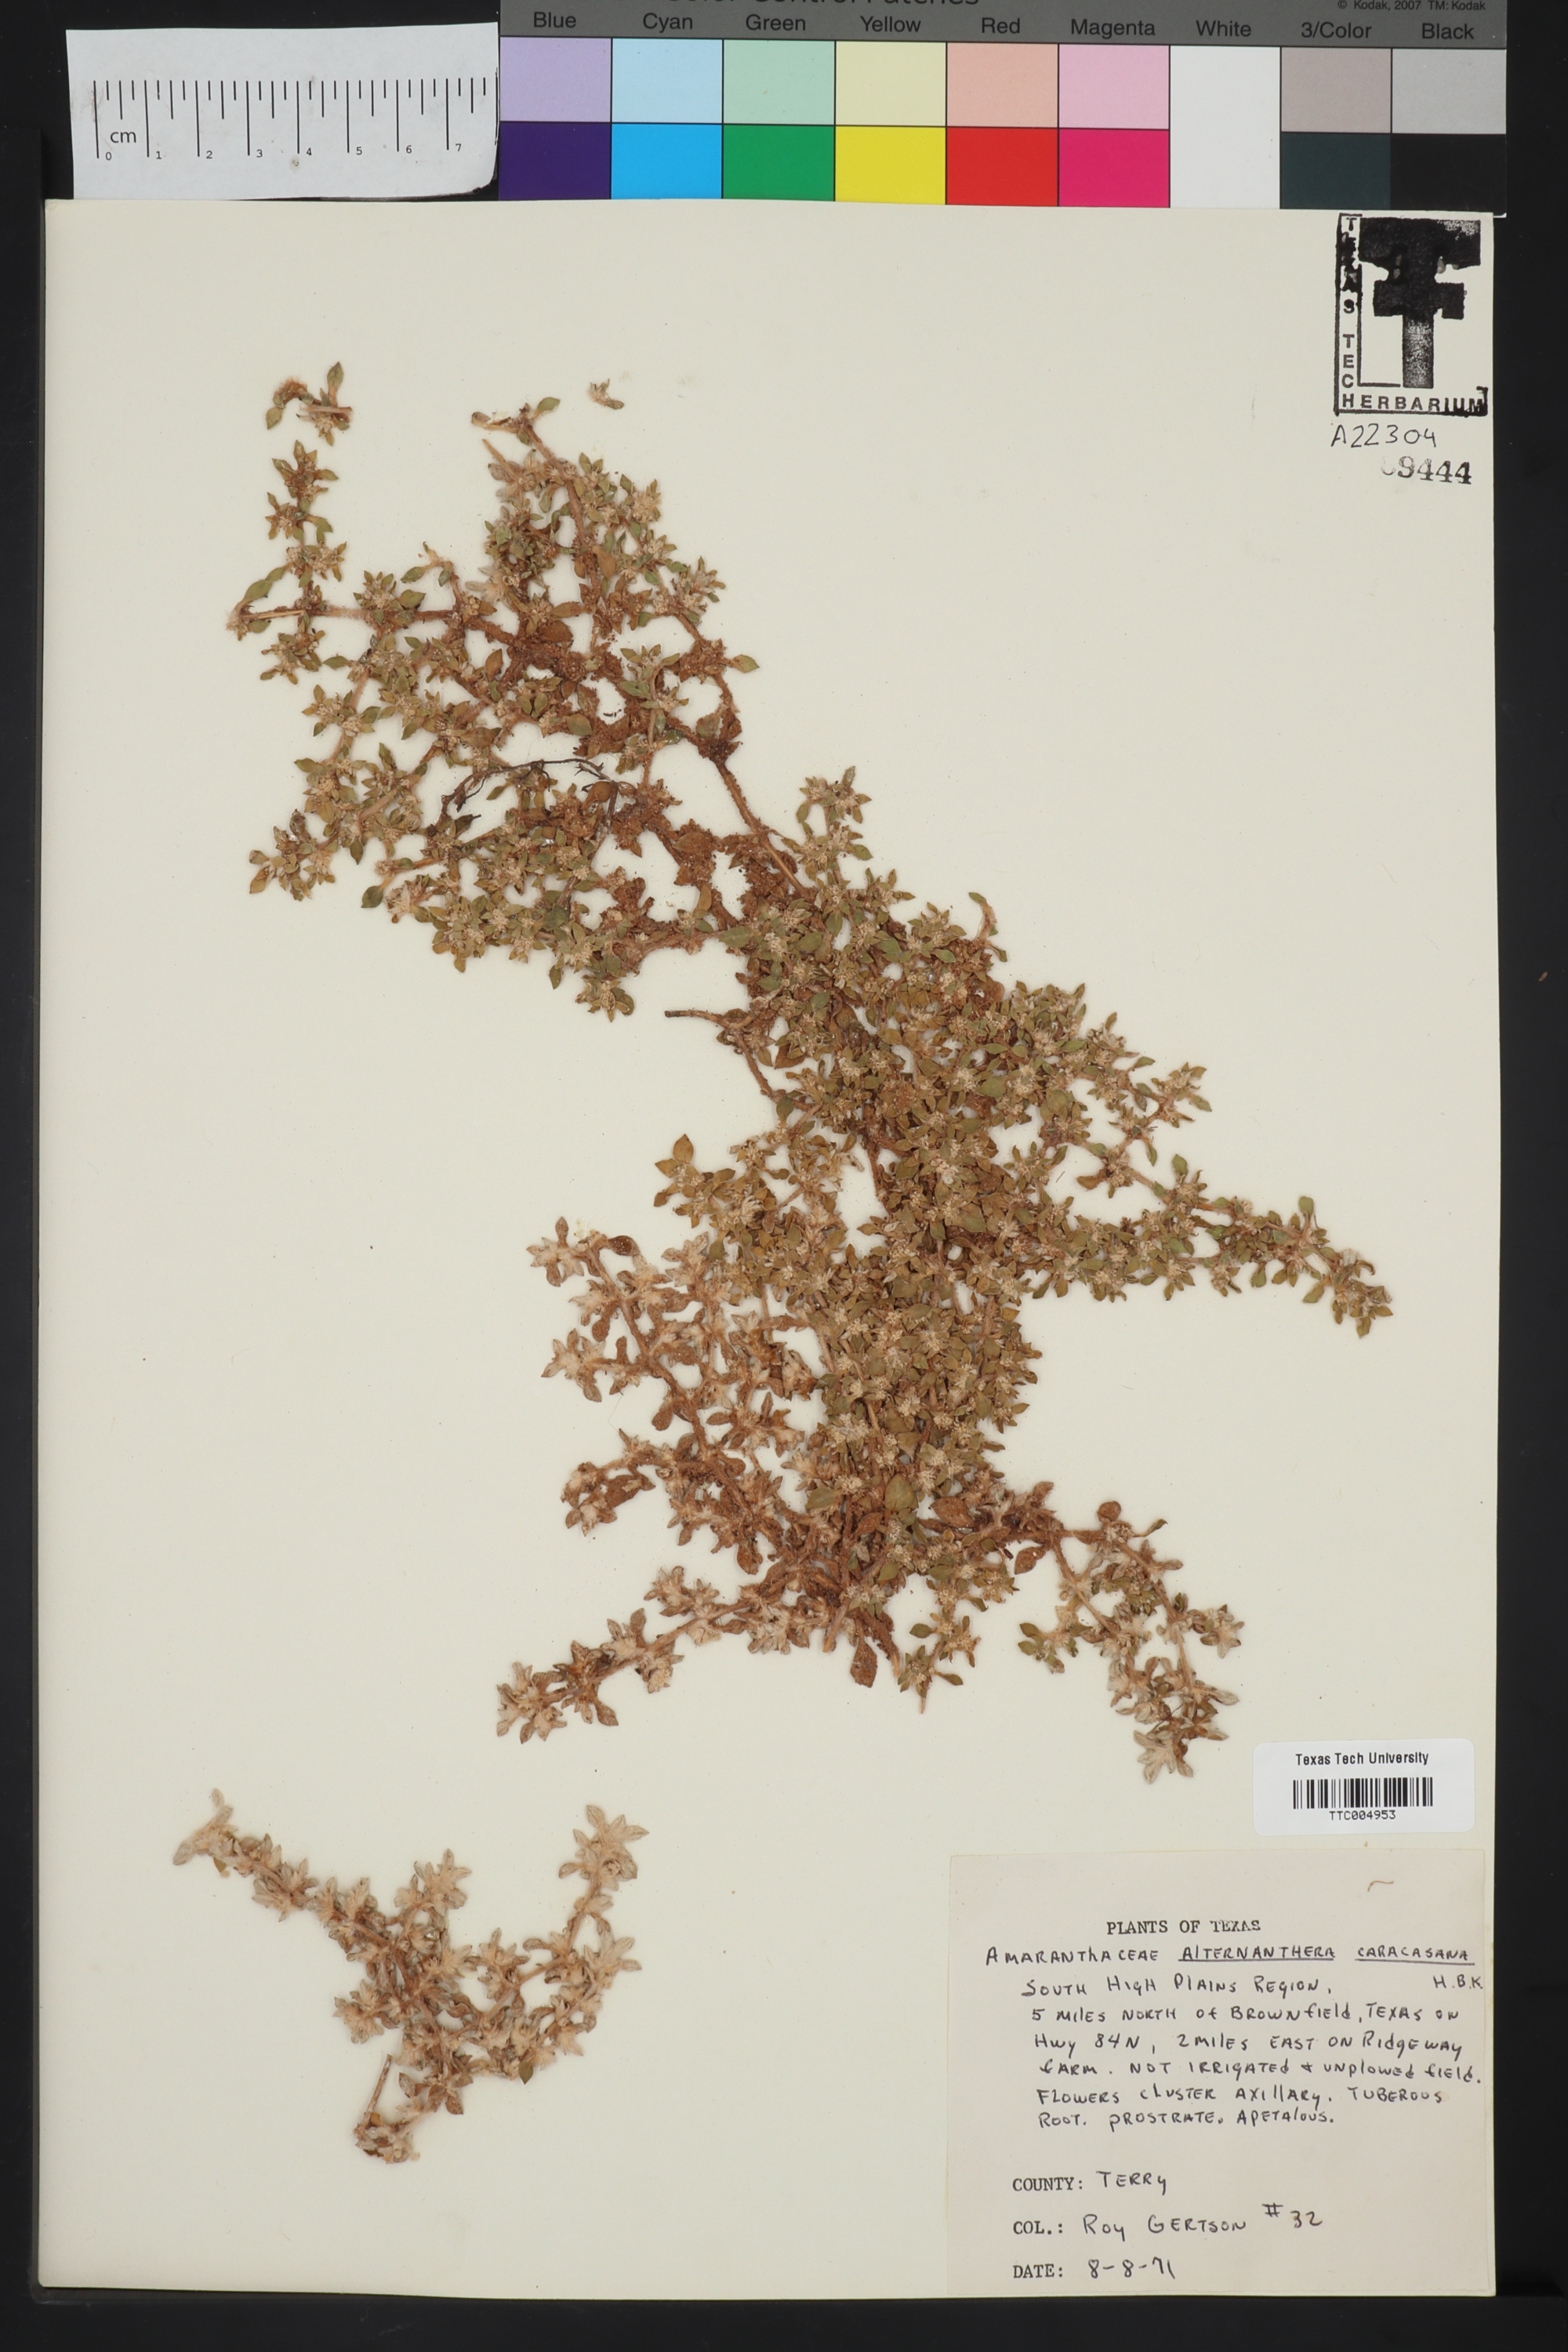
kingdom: Plantae
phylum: Tracheophyta
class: Magnoliopsida
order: Caryophyllales
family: Amaranthaceae
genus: Alternanthera
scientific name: Alternanthera caracasana
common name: Washerwoman
